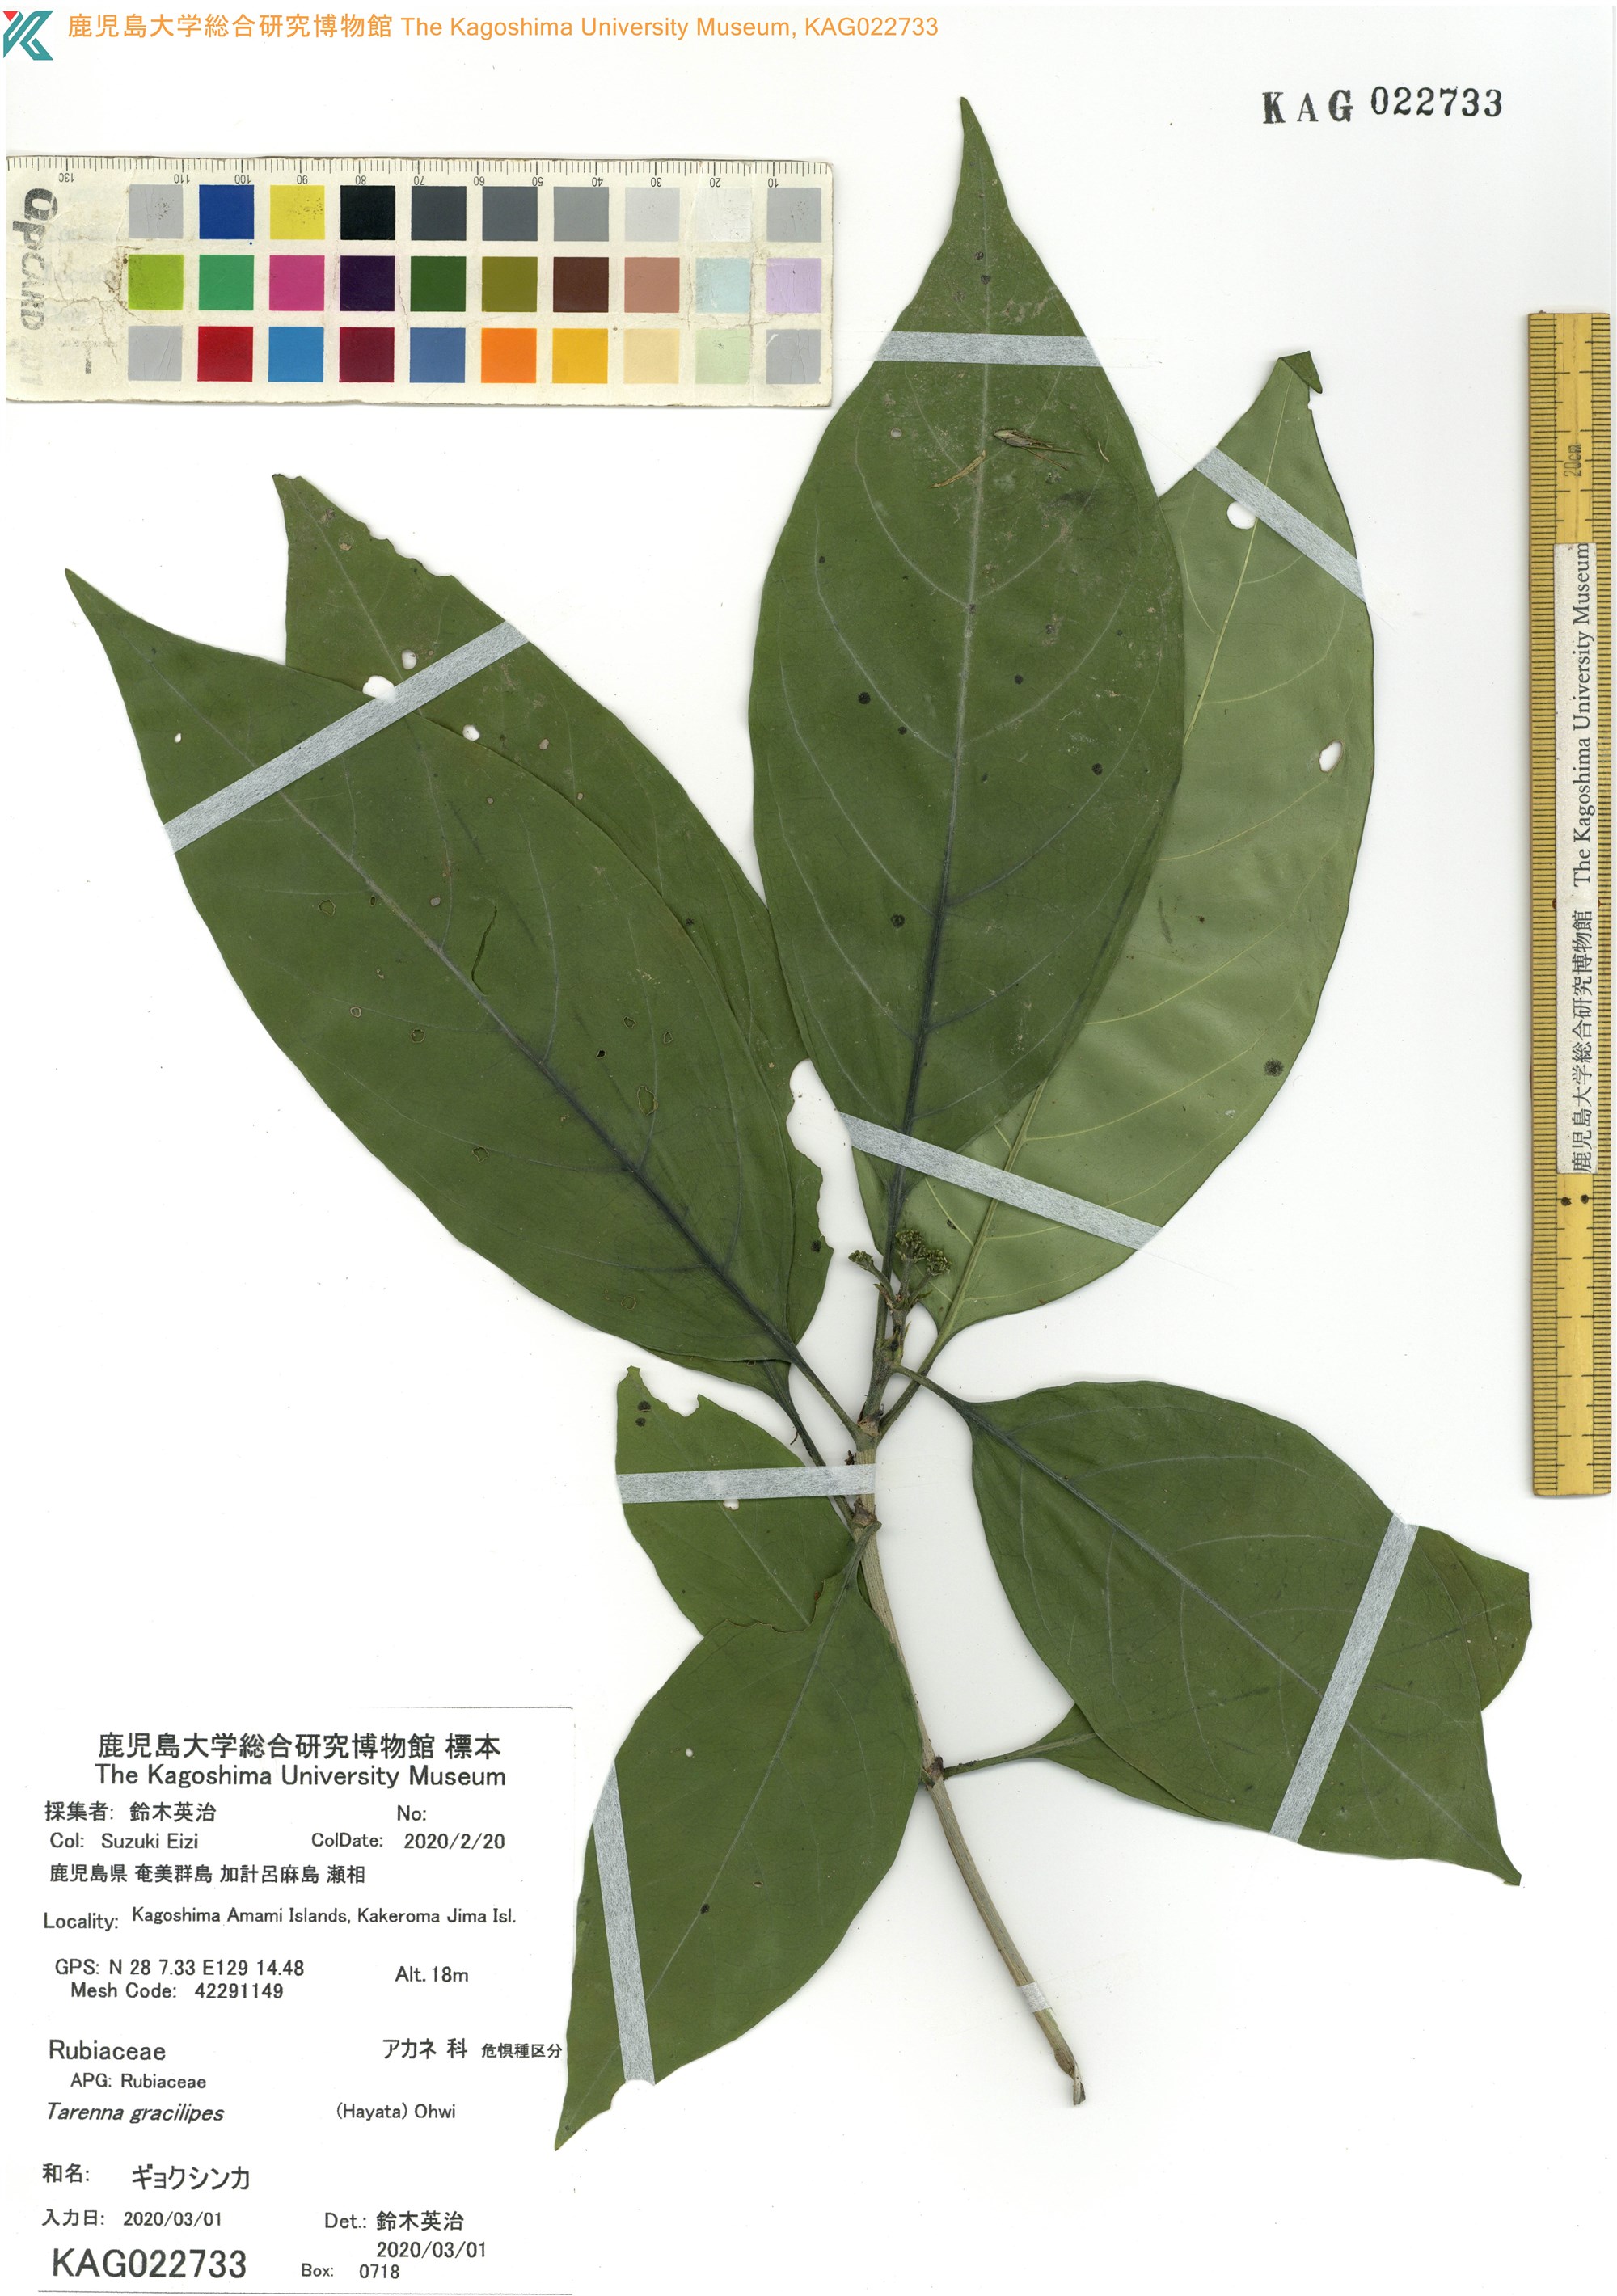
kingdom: Plantae
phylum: Tracheophyta
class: Magnoliopsida
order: Gentianales
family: Rubiaceae
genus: Tarenna
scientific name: Tarenna asiatica
